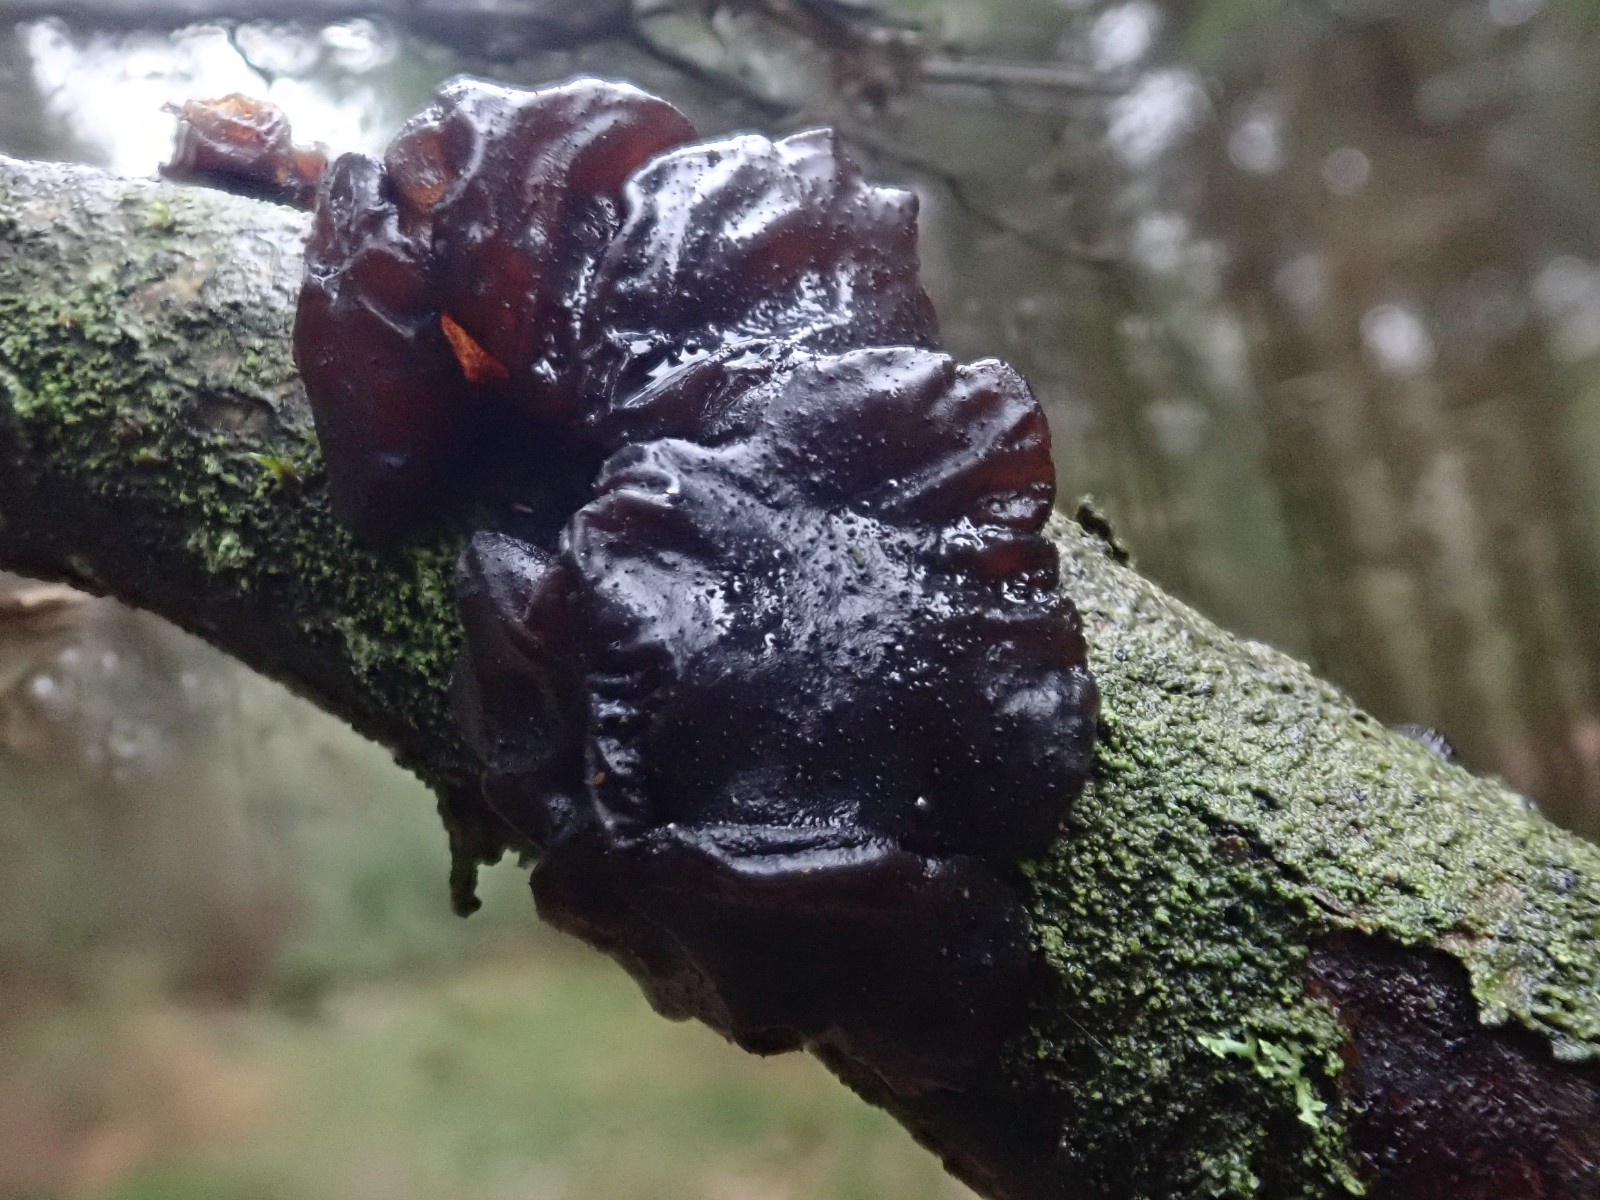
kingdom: Fungi
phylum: Basidiomycota
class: Agaricomycetes
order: Auriculariales
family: Auriculariaceae
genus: Exidia
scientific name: Exidia glandulosa
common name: ege-bævretop
